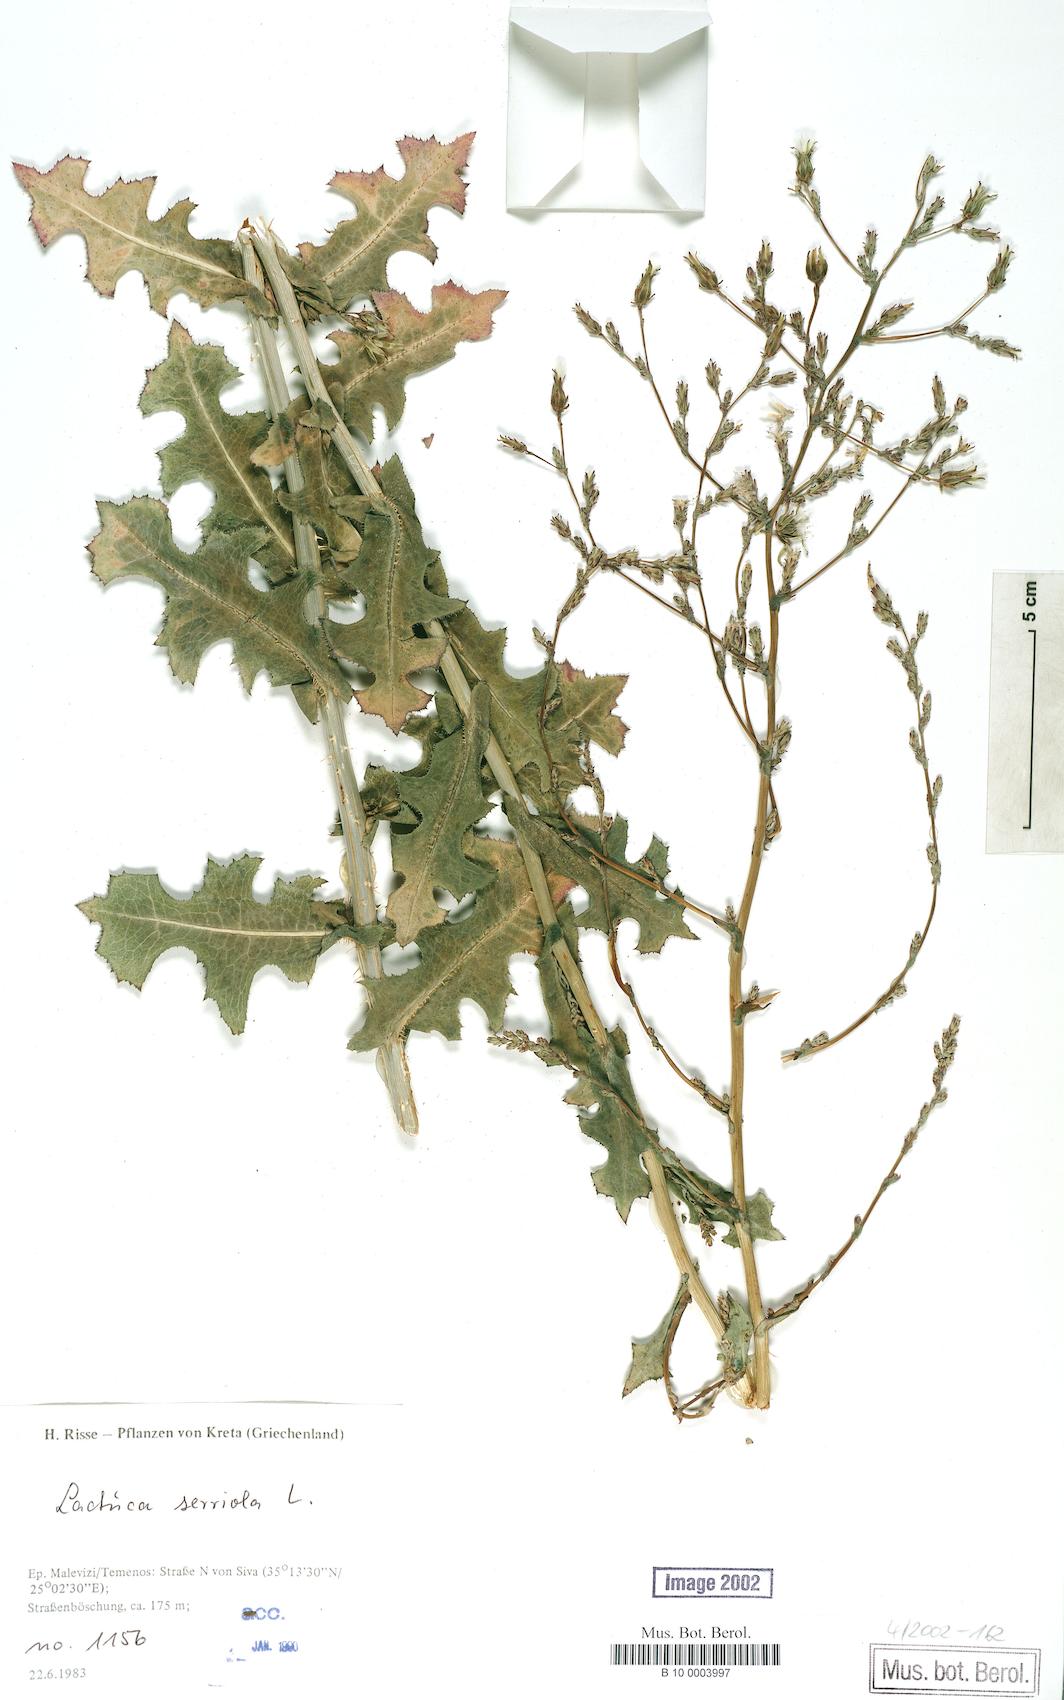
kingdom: Plantae
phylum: Tracheophyta
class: Magnoliopsida
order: Asterales
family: Asteraceae
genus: Lactuca
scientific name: Lactuca serriola
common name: Prickly lettuce
